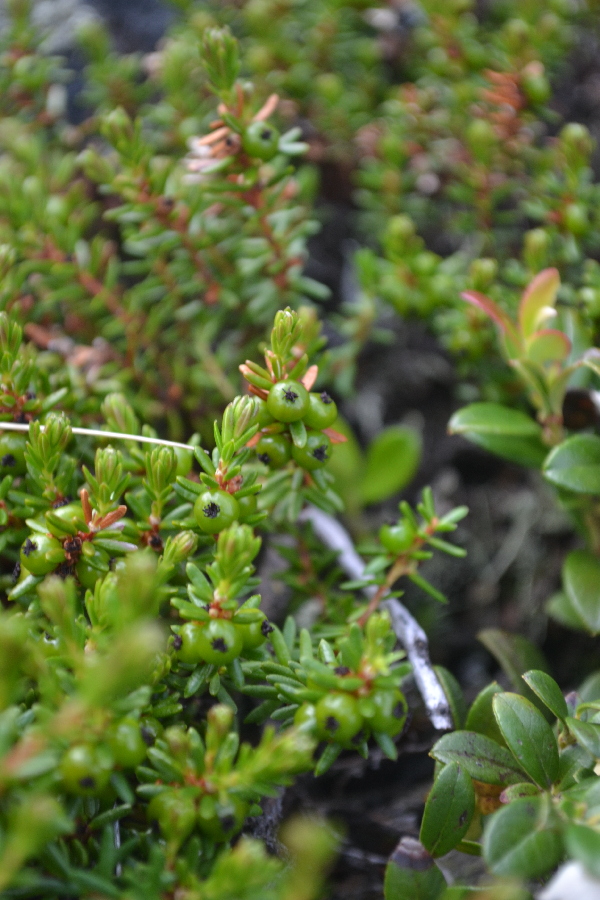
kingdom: Plantae
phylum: Tracheophyta
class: Magnoliopsida
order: Ericales
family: Ericaceae
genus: Empetrum
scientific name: Empetrum nigrum
